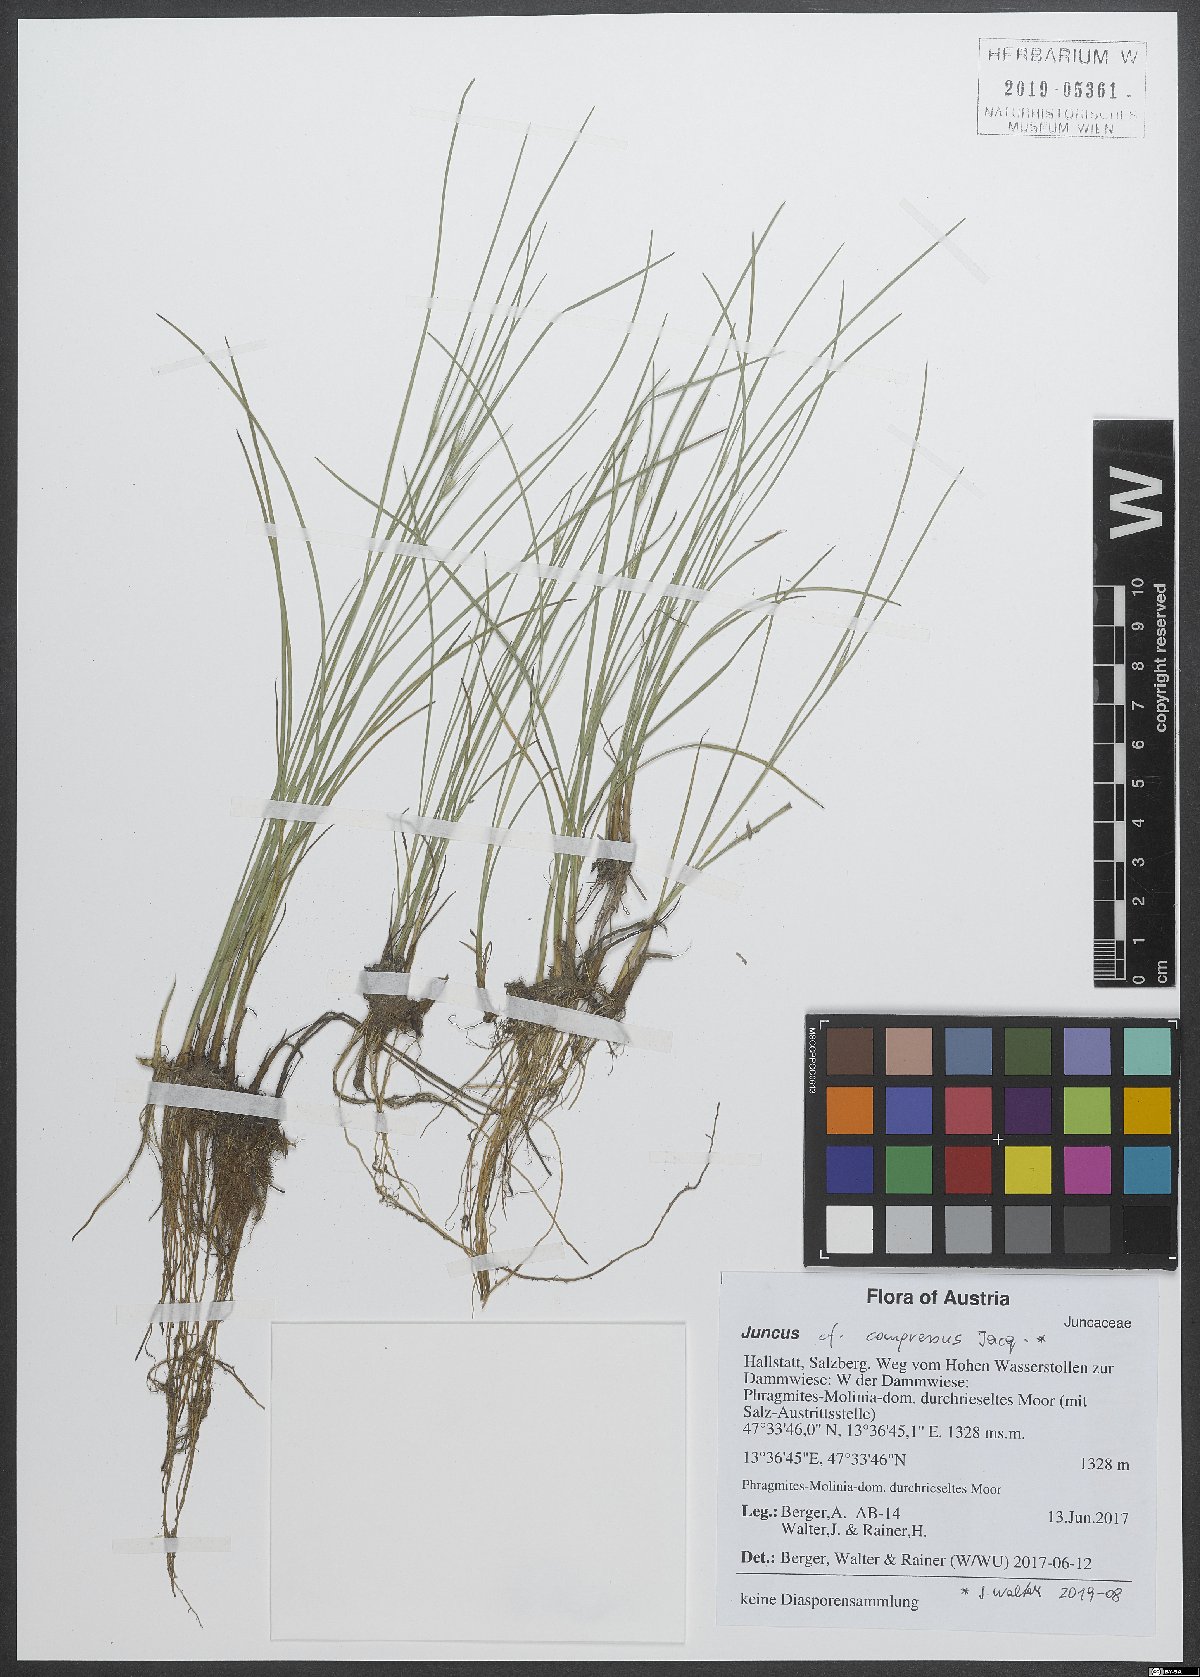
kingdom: Plantae
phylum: Tracheophyta
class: Liliopsida
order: Poales
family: Juncaceae
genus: Juncus
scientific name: Juncus compressus
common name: Round-fruited rush
